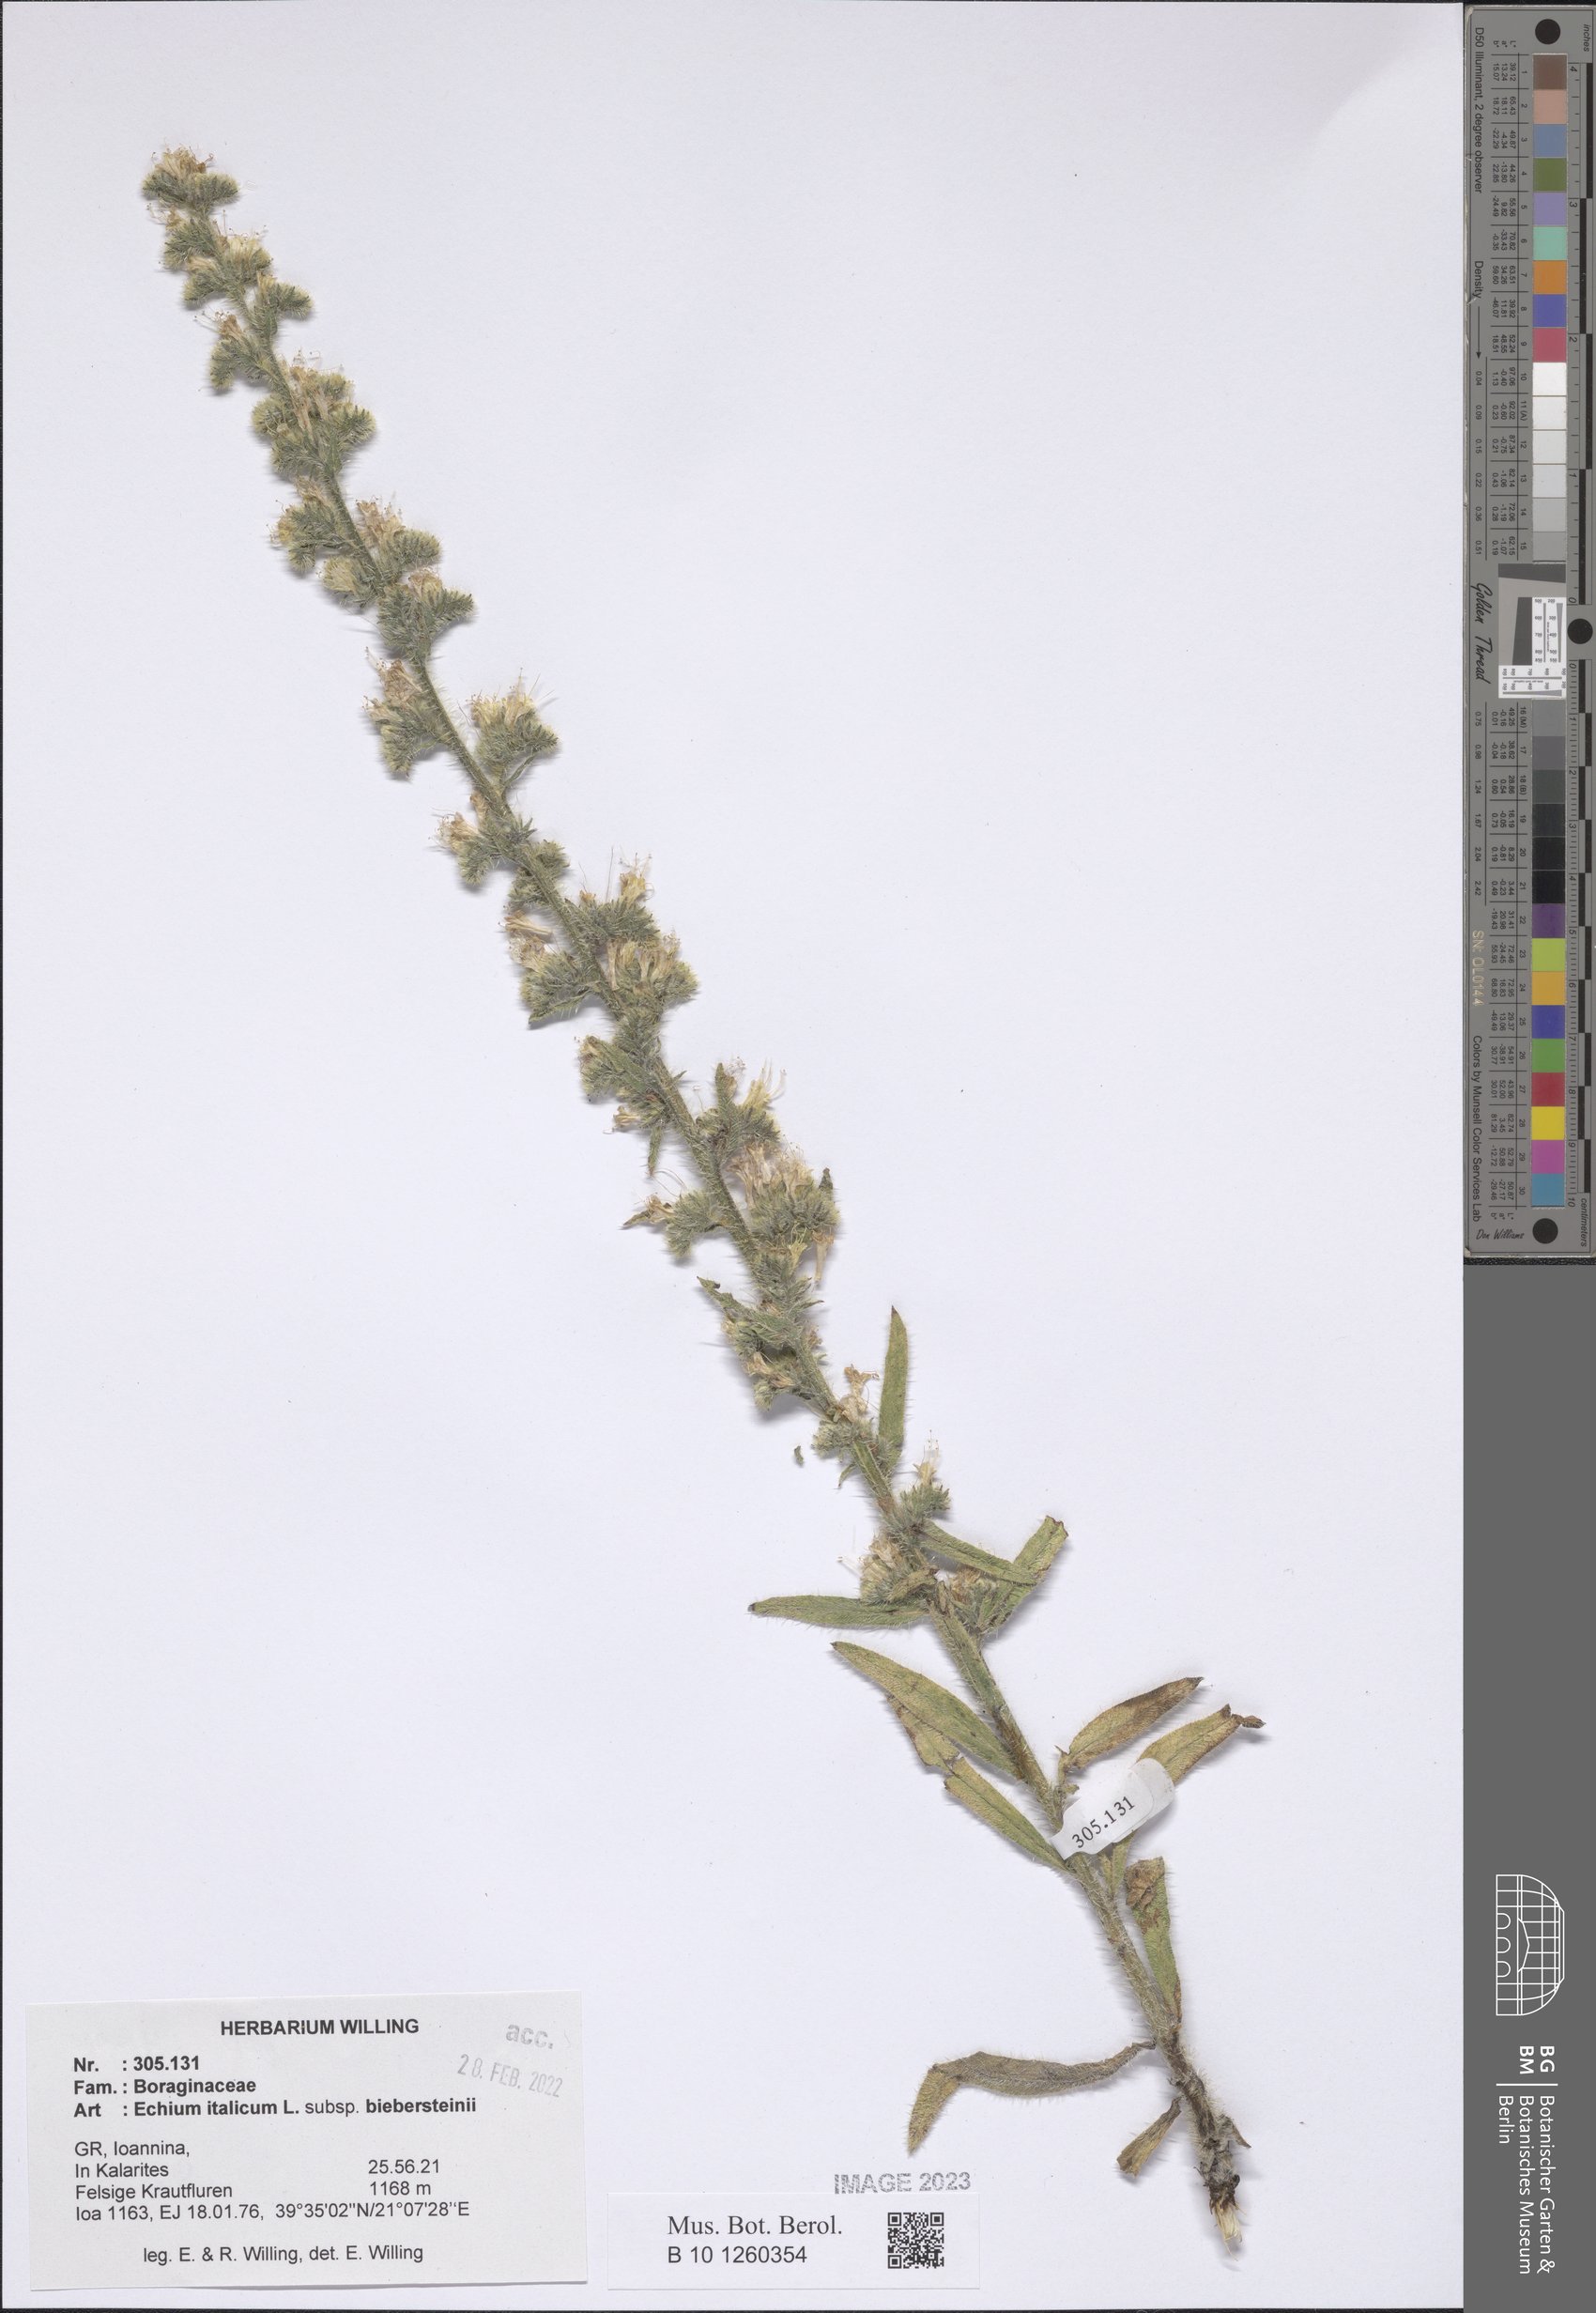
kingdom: Plantae
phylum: Tracheophyta
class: Magnoliopsida
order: Boraginales
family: Boraginaceae
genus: Echium
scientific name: Echium italicum
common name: Italian viper's bugloss
